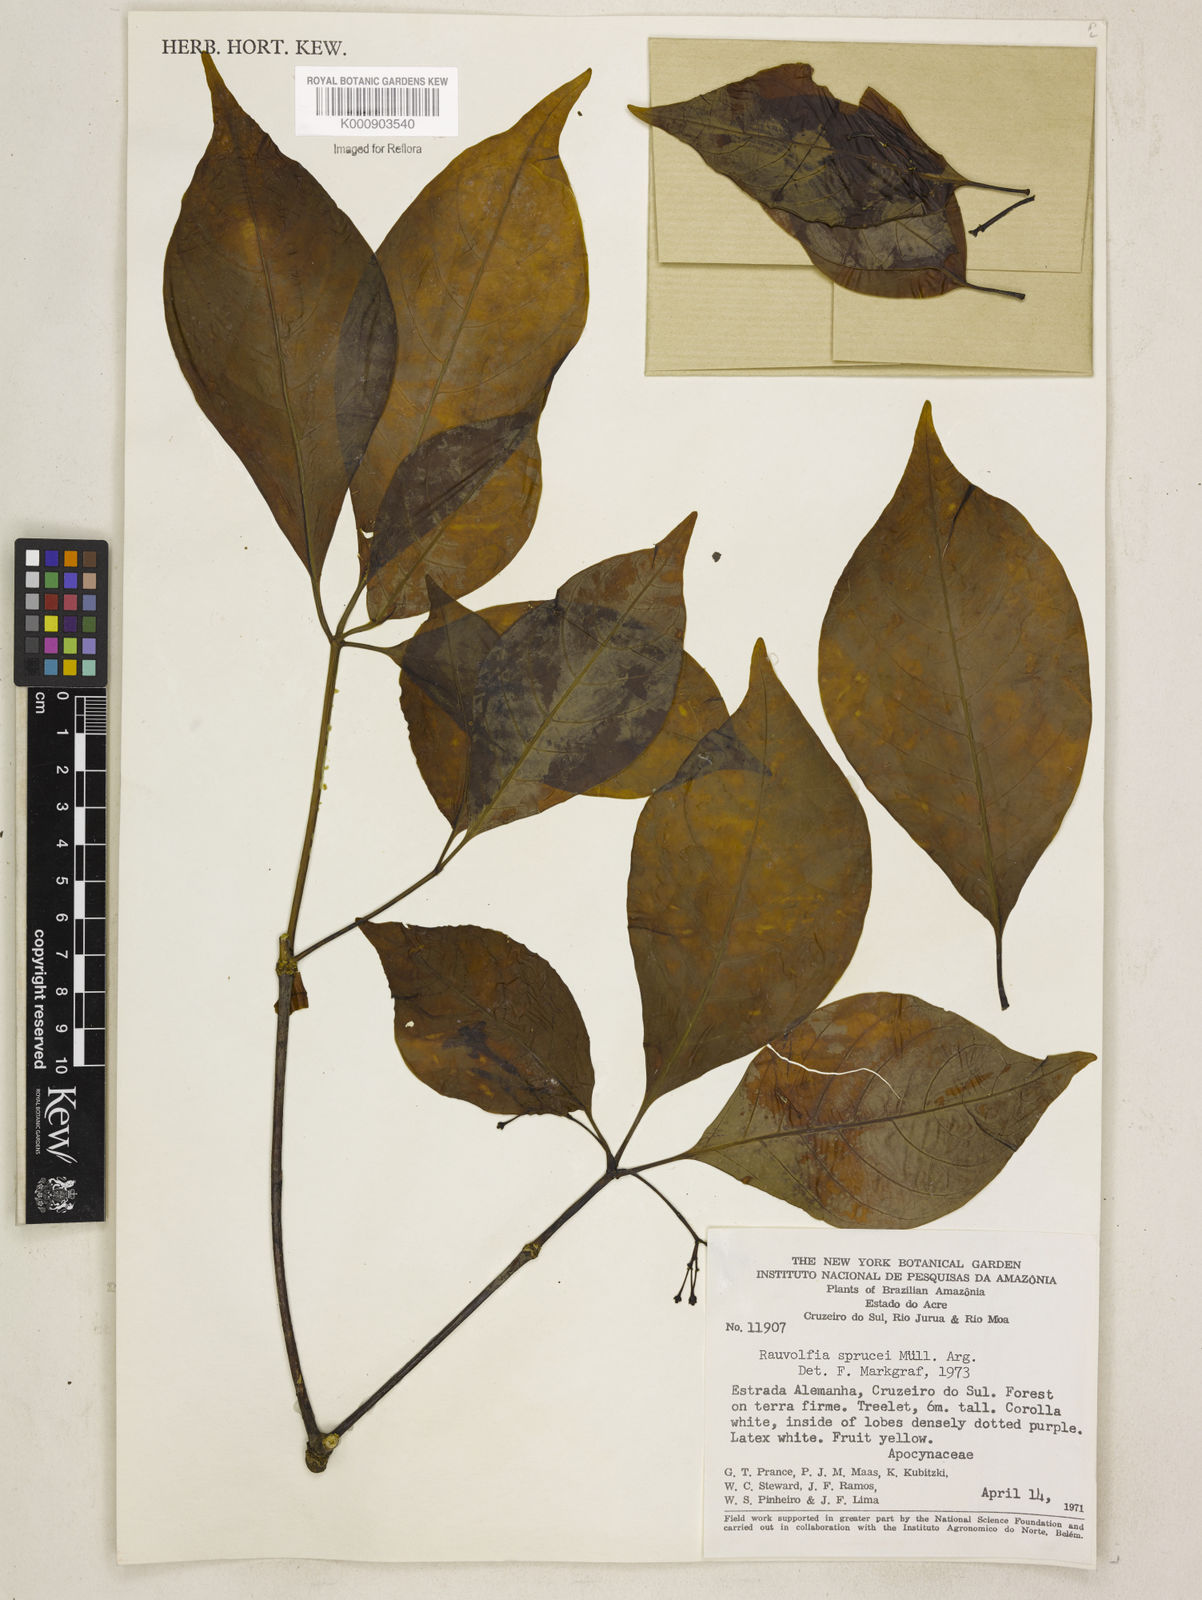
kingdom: Plantae
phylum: Tracheophyta
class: Magnoliopsida
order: Gentianales
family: Apocynaceae
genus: Rauvolfia
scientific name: Rauvolfia
